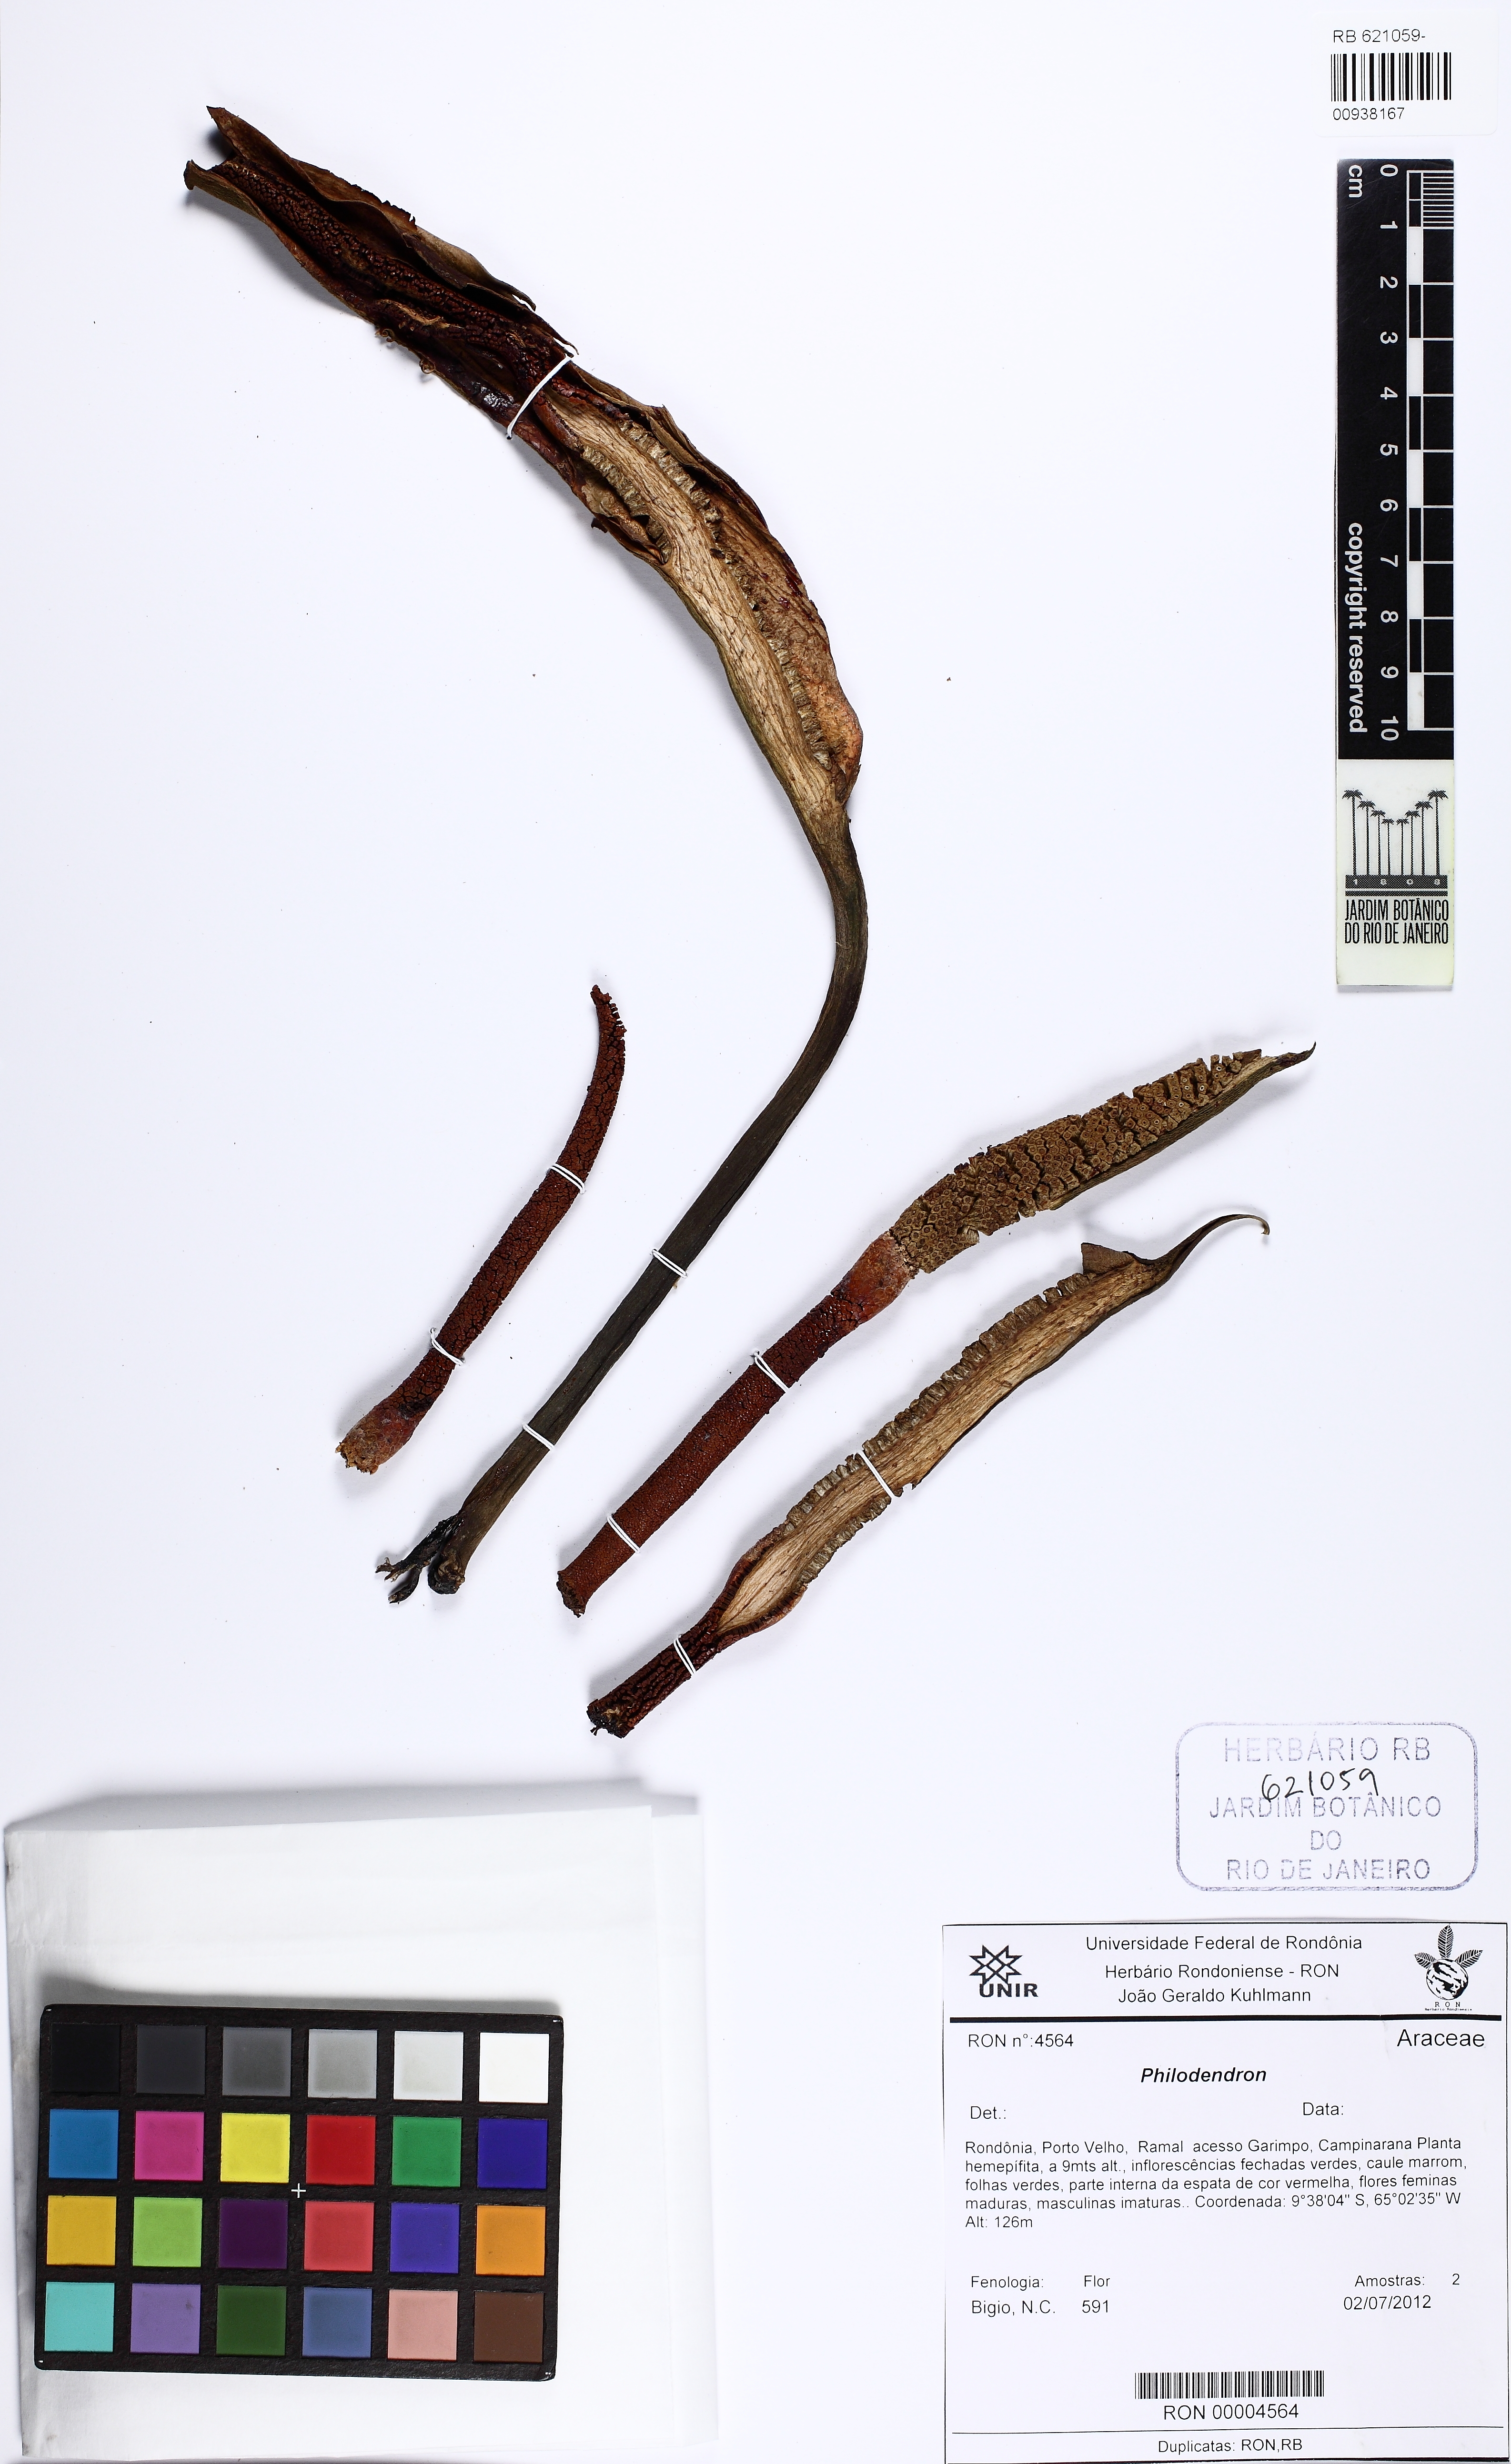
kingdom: Plantae
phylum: Tracheophyta
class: Liliopsida
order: Alismatales
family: Araceae
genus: Philodendron
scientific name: Philodendron
